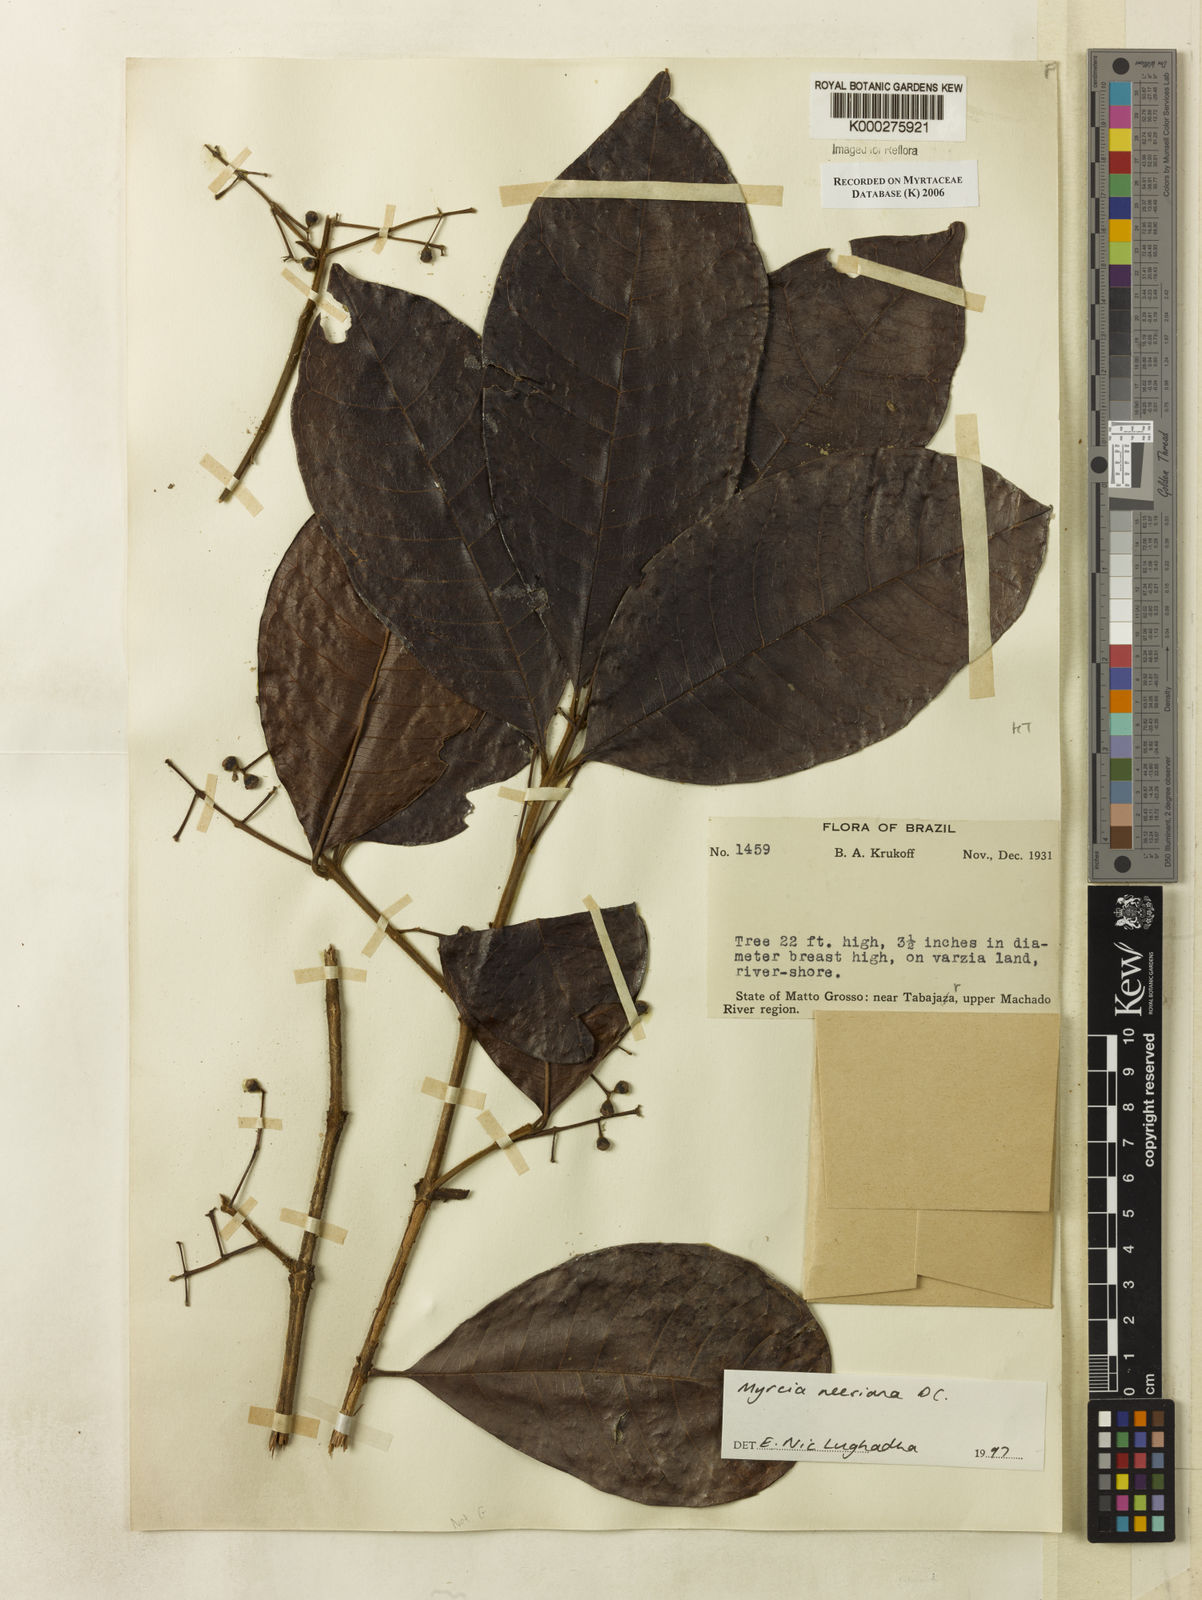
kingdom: Plantae
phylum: Tracheophyta
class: Magnoliopsida
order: Myrtales
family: Myrtaceae
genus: Myrcia
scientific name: Myrcia neesiana
